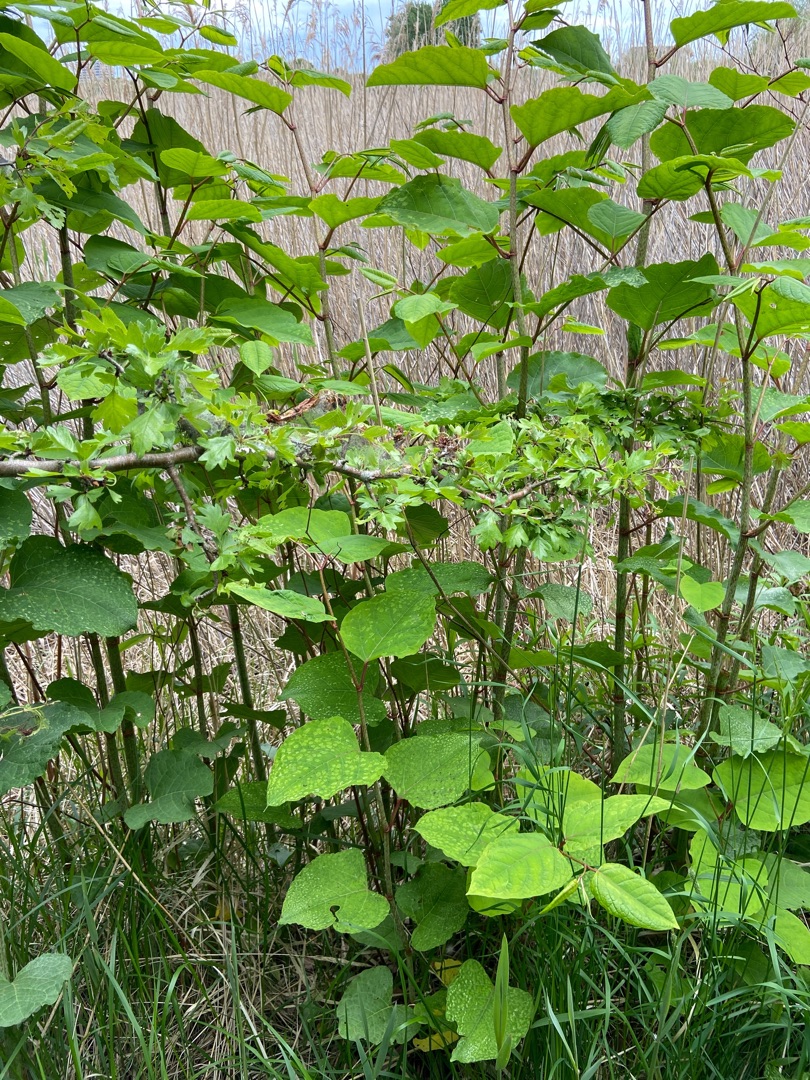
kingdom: Plantae
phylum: Tracheophyta
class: Magnoliopsida
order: Caryophyllales
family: Polygonaceae
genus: Reynoutria
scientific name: Reynoutria bohemica
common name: Hybrid-pileurt
